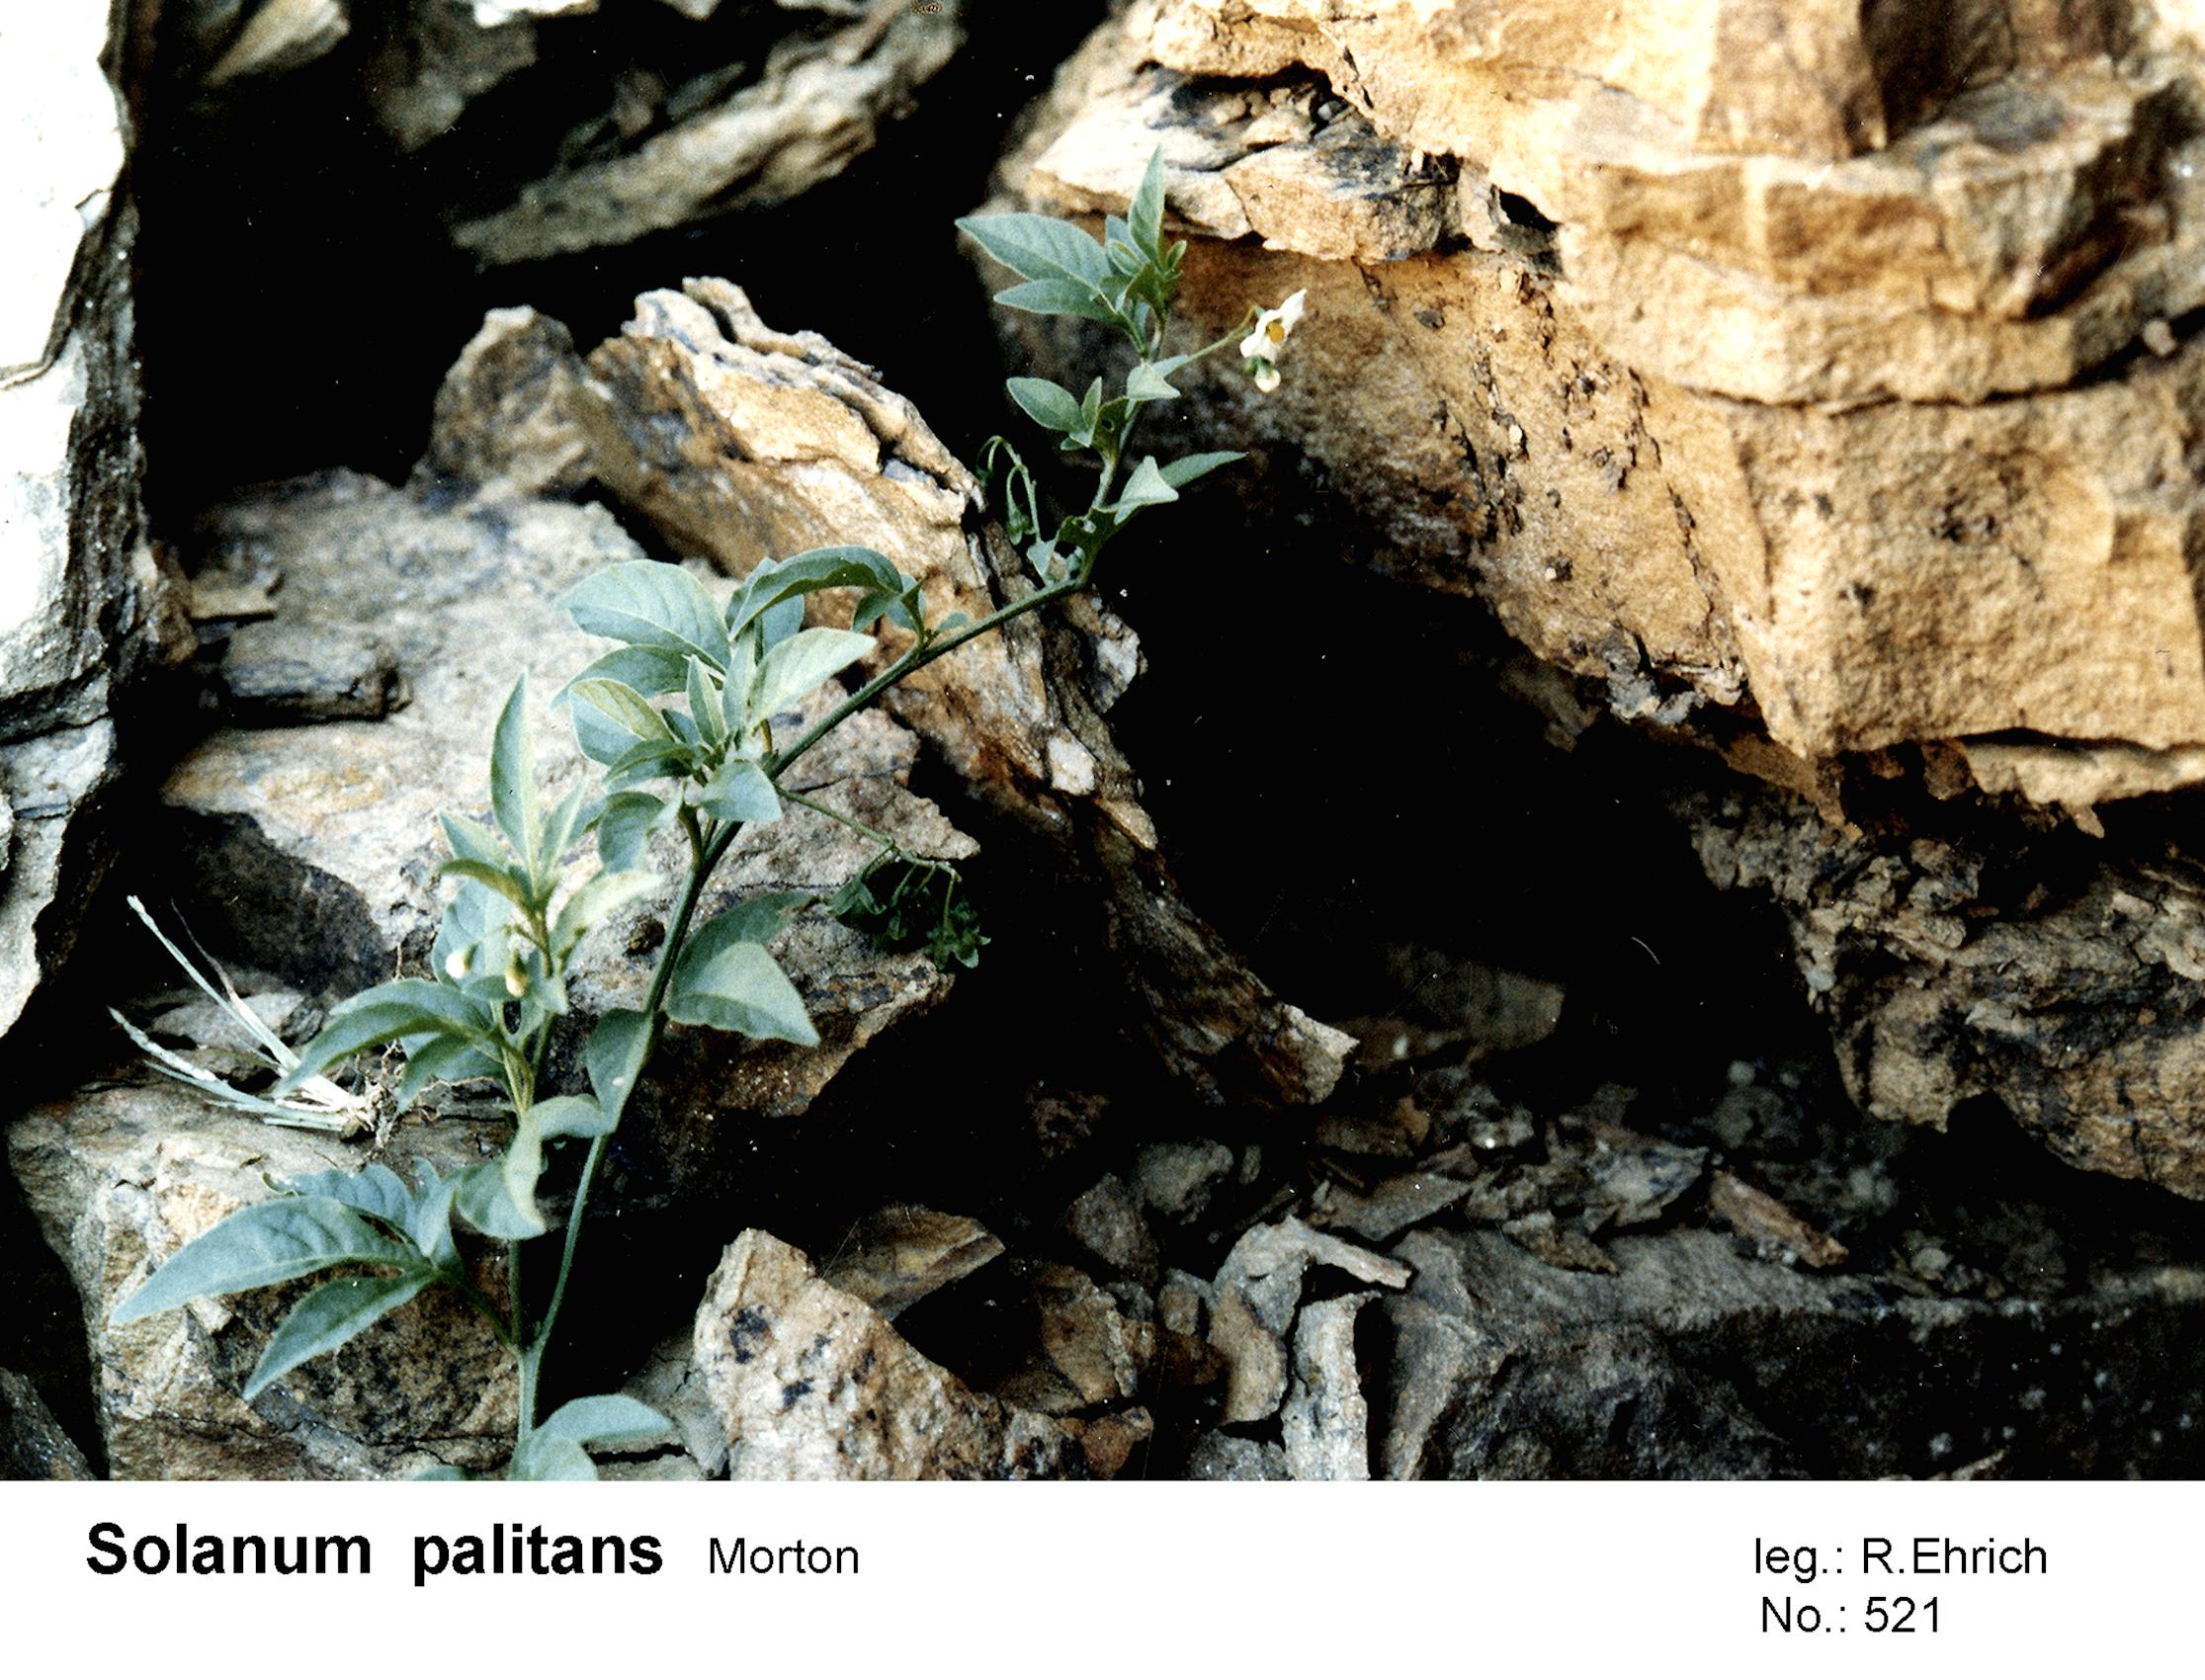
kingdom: Plantae
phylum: Tracheophyta
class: Magnoliopsida
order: Solanales
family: Solanaceae
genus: Solanum
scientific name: Solanum palitans
